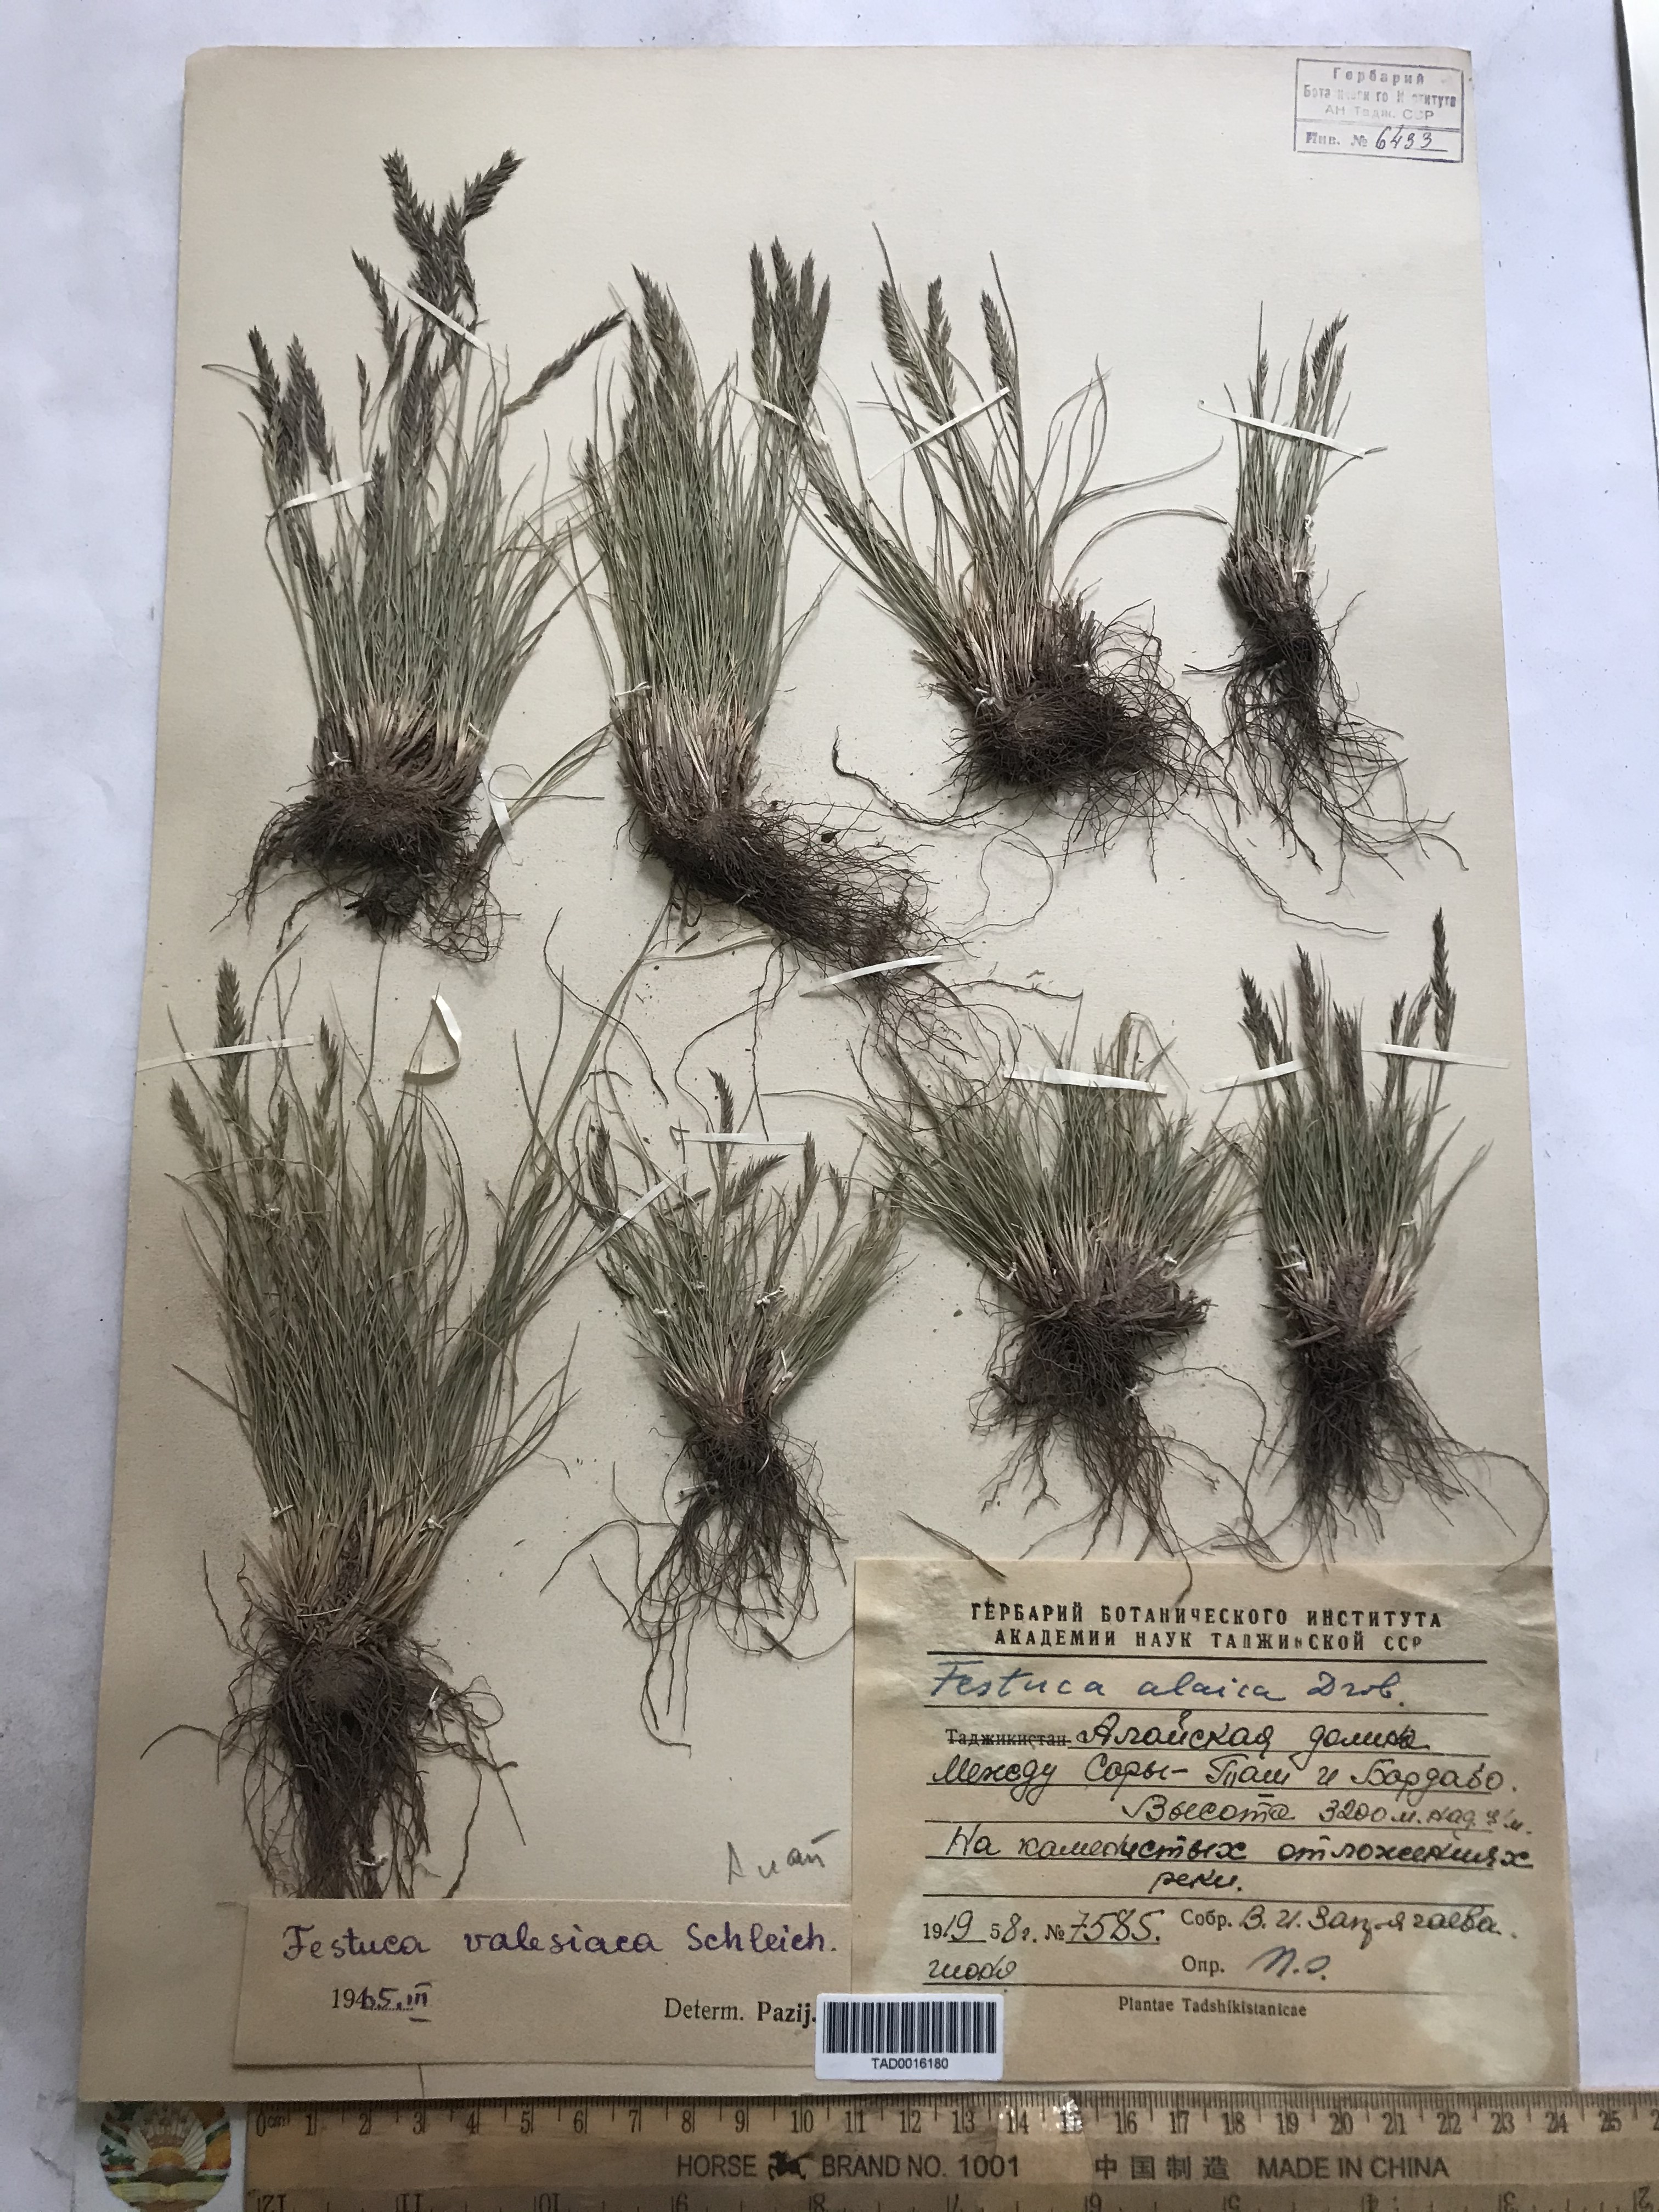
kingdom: Plantae
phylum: Tracheophyta
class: Liliopsida
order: Poales
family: Poaceae
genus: Festuca
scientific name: Festuca alaica
